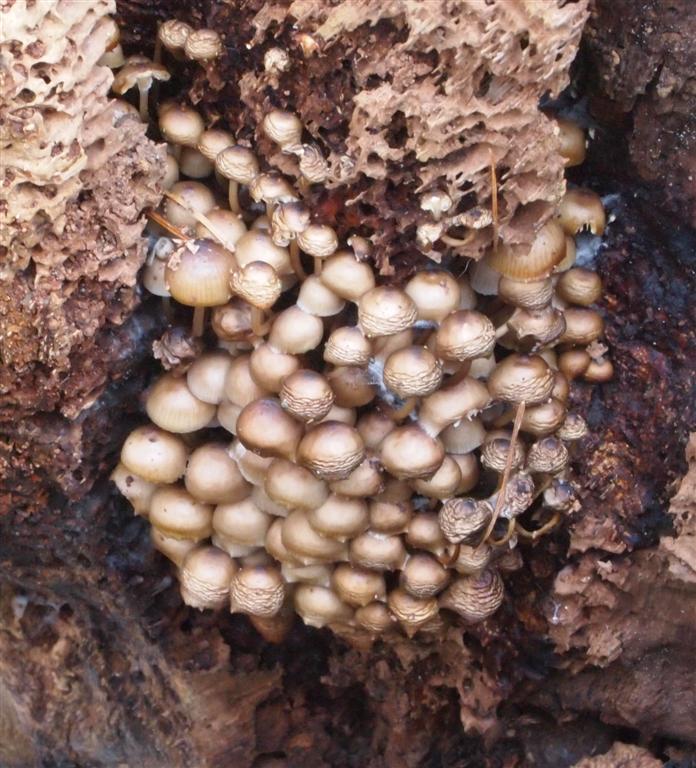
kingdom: Fungi
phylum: Basidiomycota
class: Agaricomycetes
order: Agaricales
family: Mycenaceae
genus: Mycena
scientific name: Mycena tintinnabulum
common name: vinter-huesvamp
